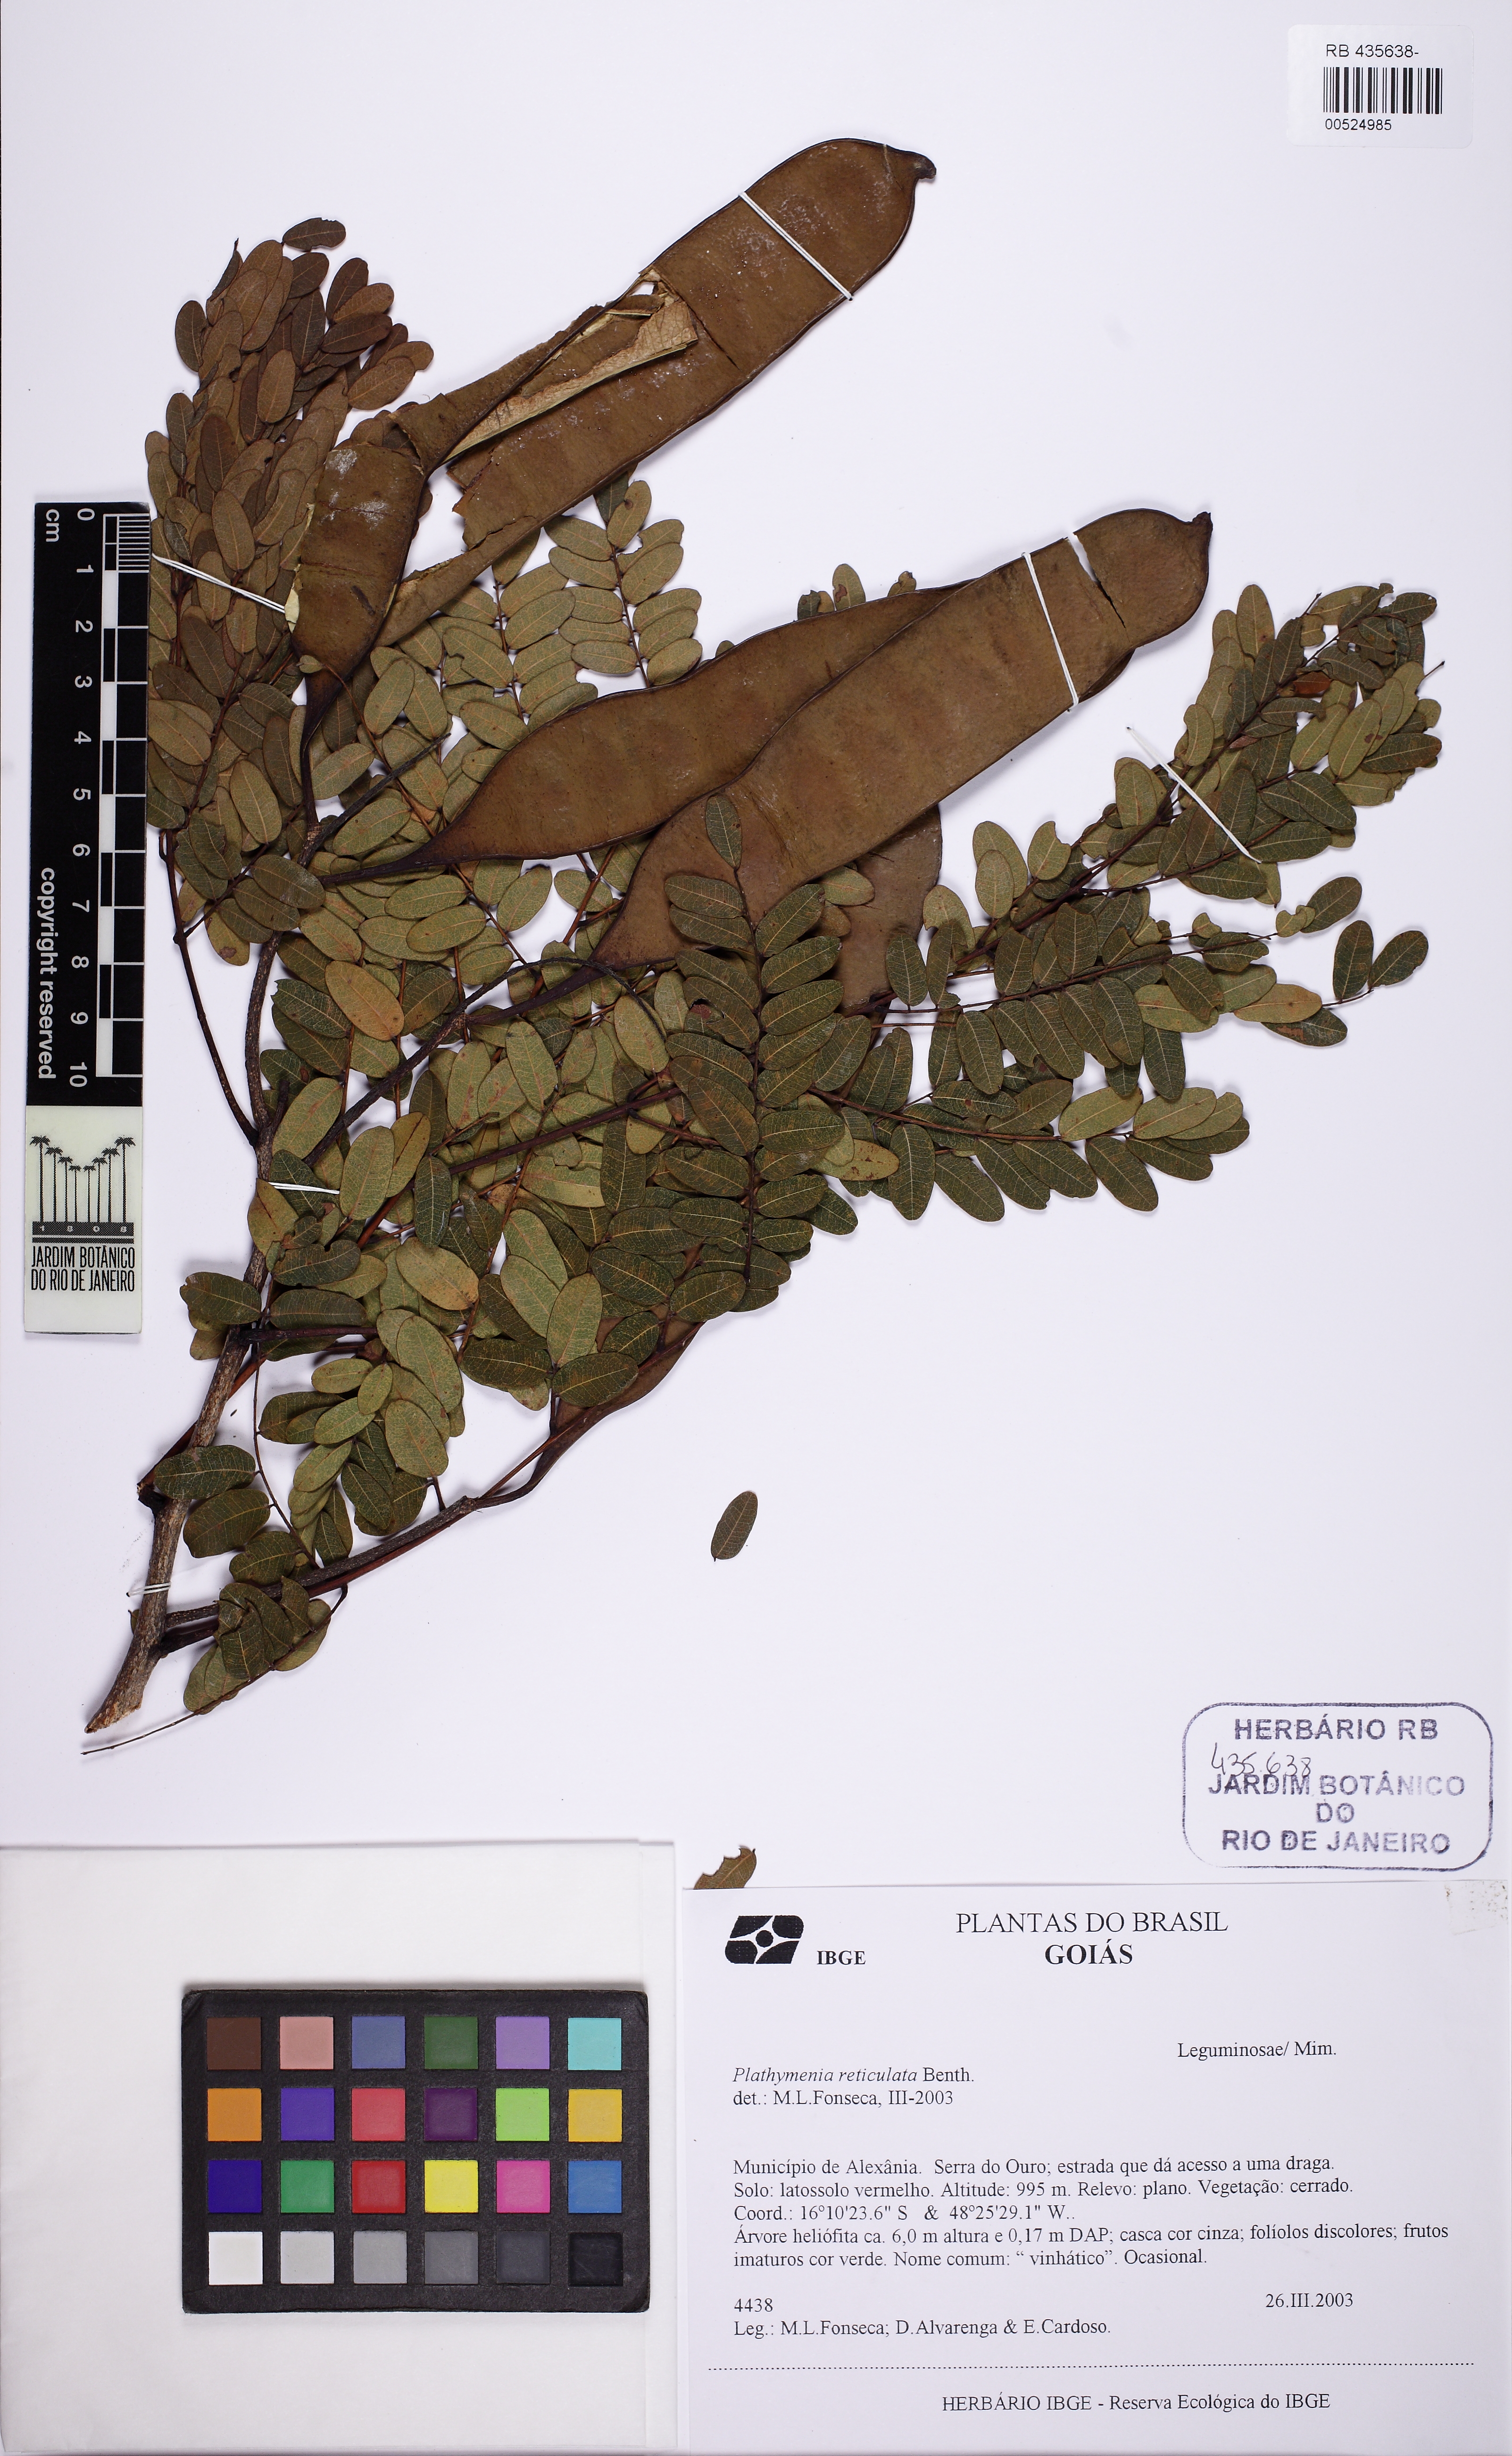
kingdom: Plantae
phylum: Tracheophyta
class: Magnoliopsida
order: Fabales
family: Fabaceae
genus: Plathymenia
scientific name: Plathymenia reticulata
